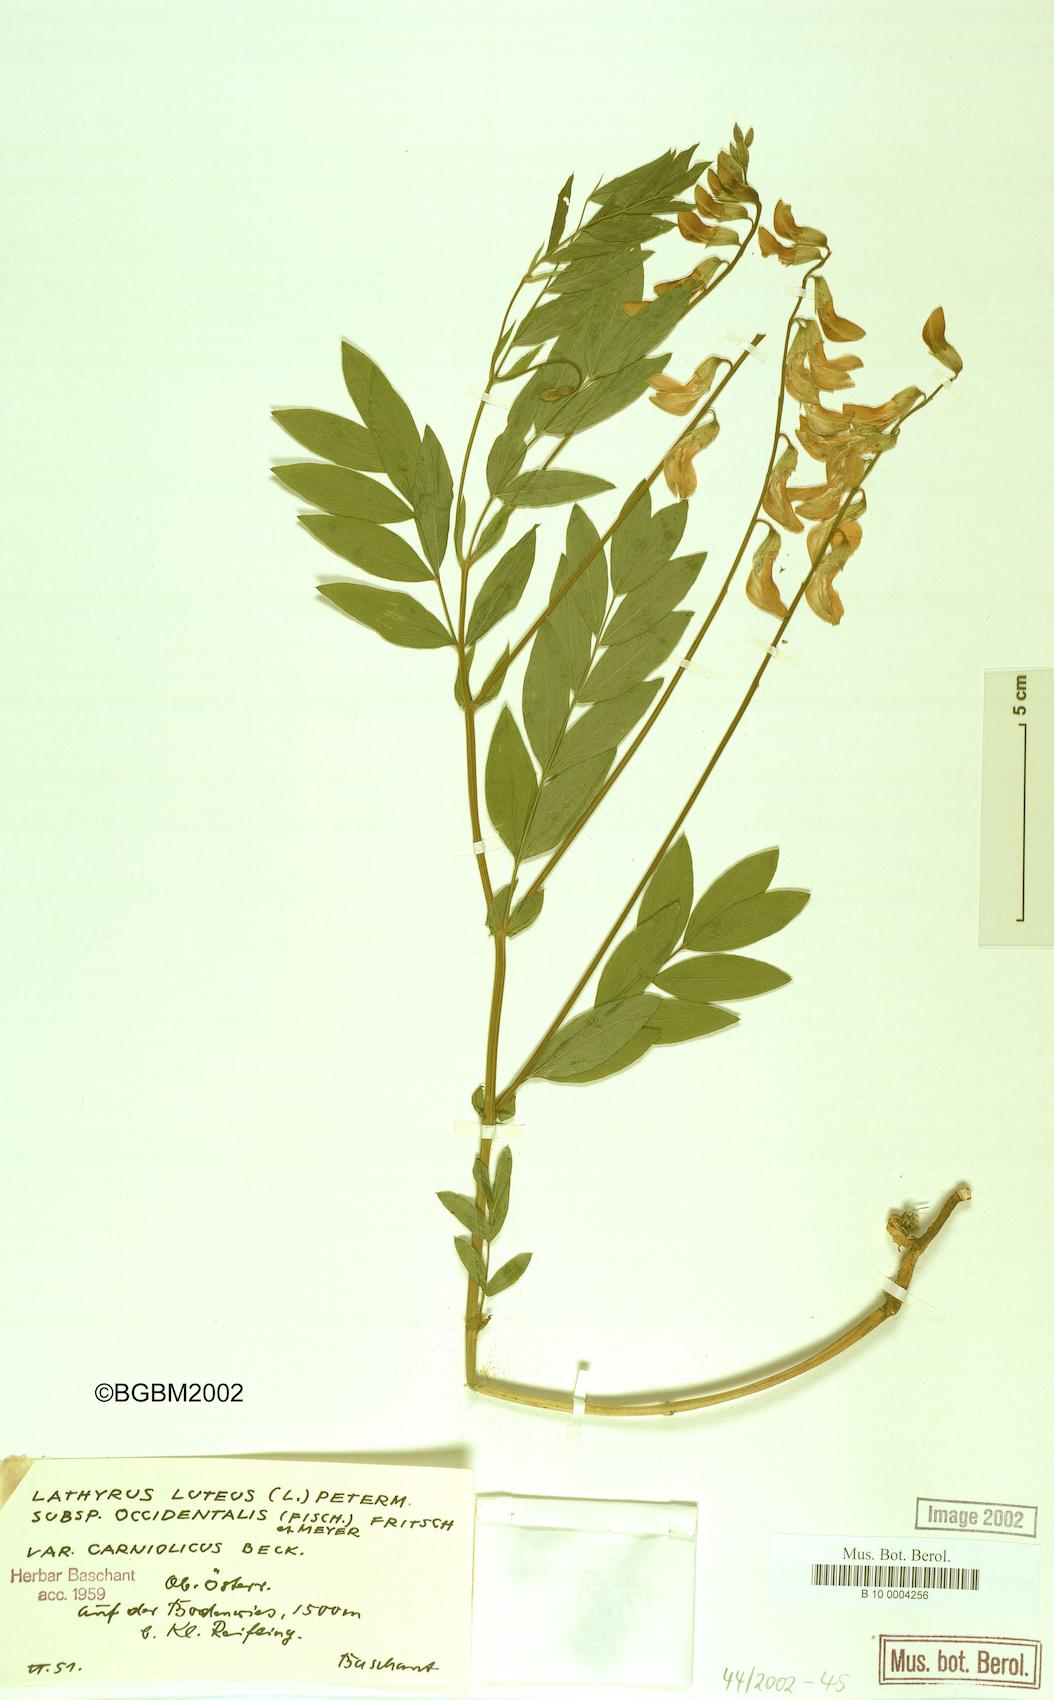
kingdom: Plantae
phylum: Tracheophyta
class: Magnoliopsida
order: Fabales
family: Fabaceae
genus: Lathyrus
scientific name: Lathyrus gmelinii
